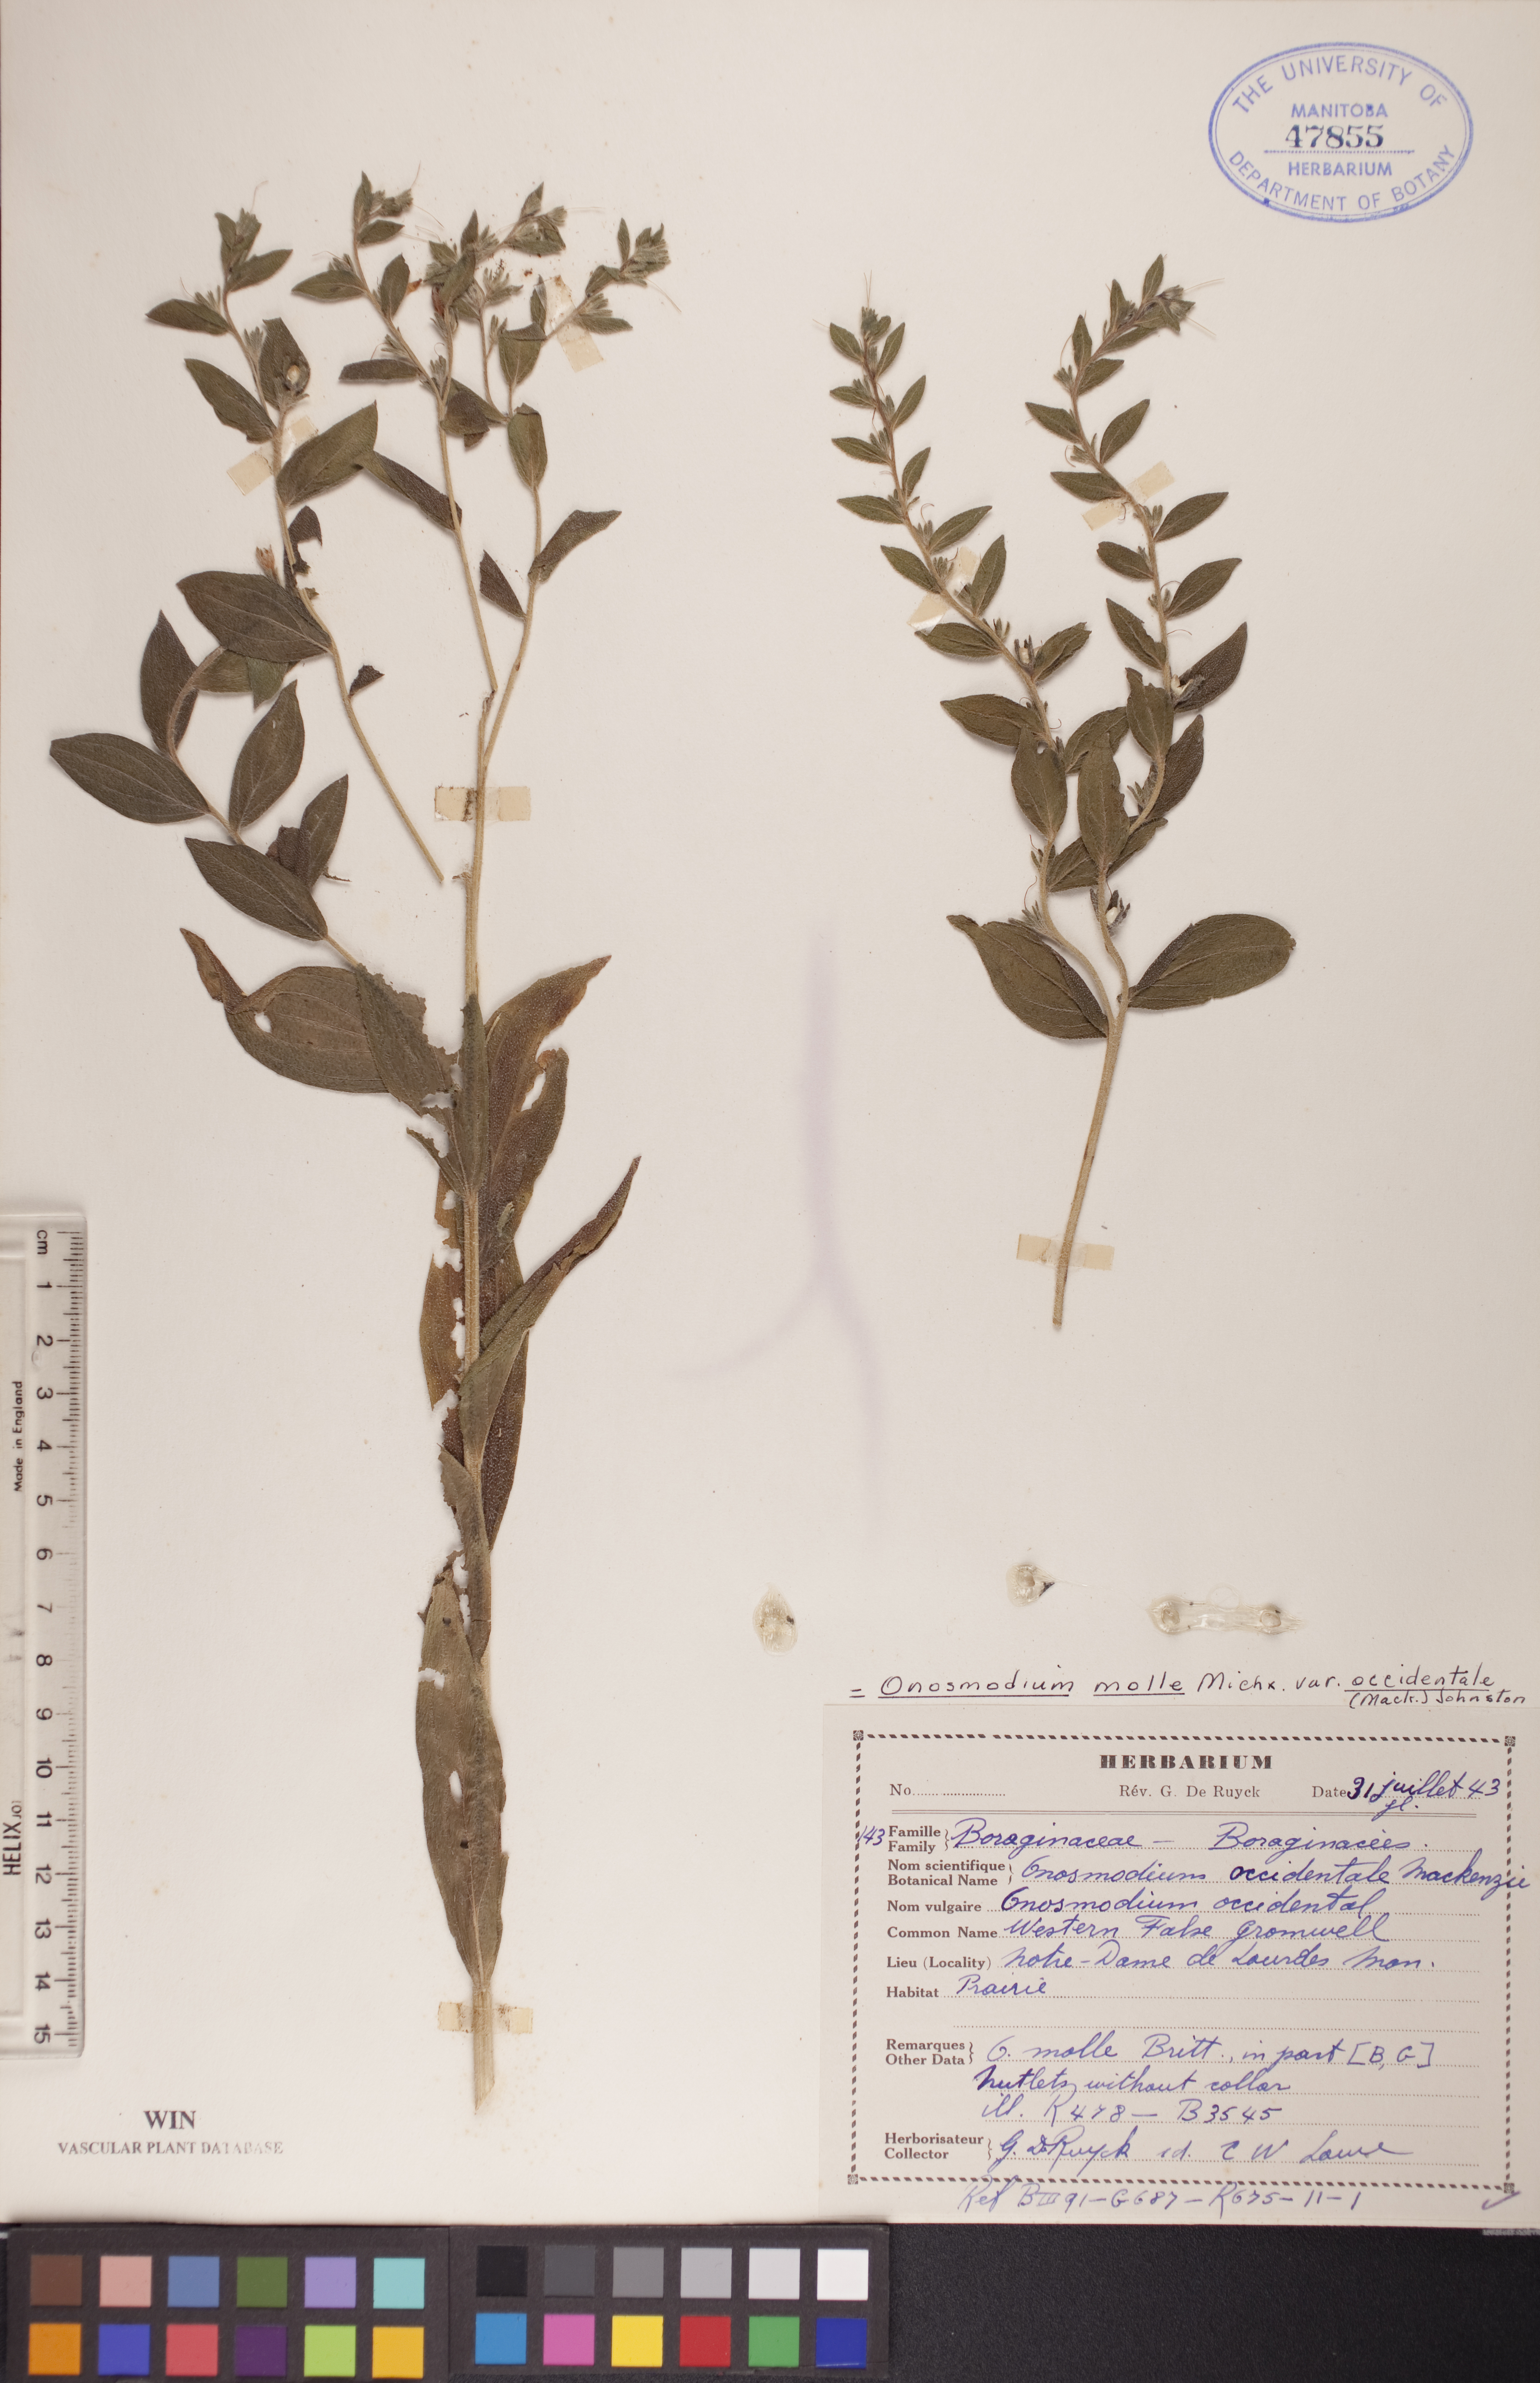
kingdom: Plantae
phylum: Tracheophyta
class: Magnoliopsida
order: Boraginales
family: Boraginaceae
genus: Lithospermum
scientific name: Lithospermum occidentale
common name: Western false gromwell
